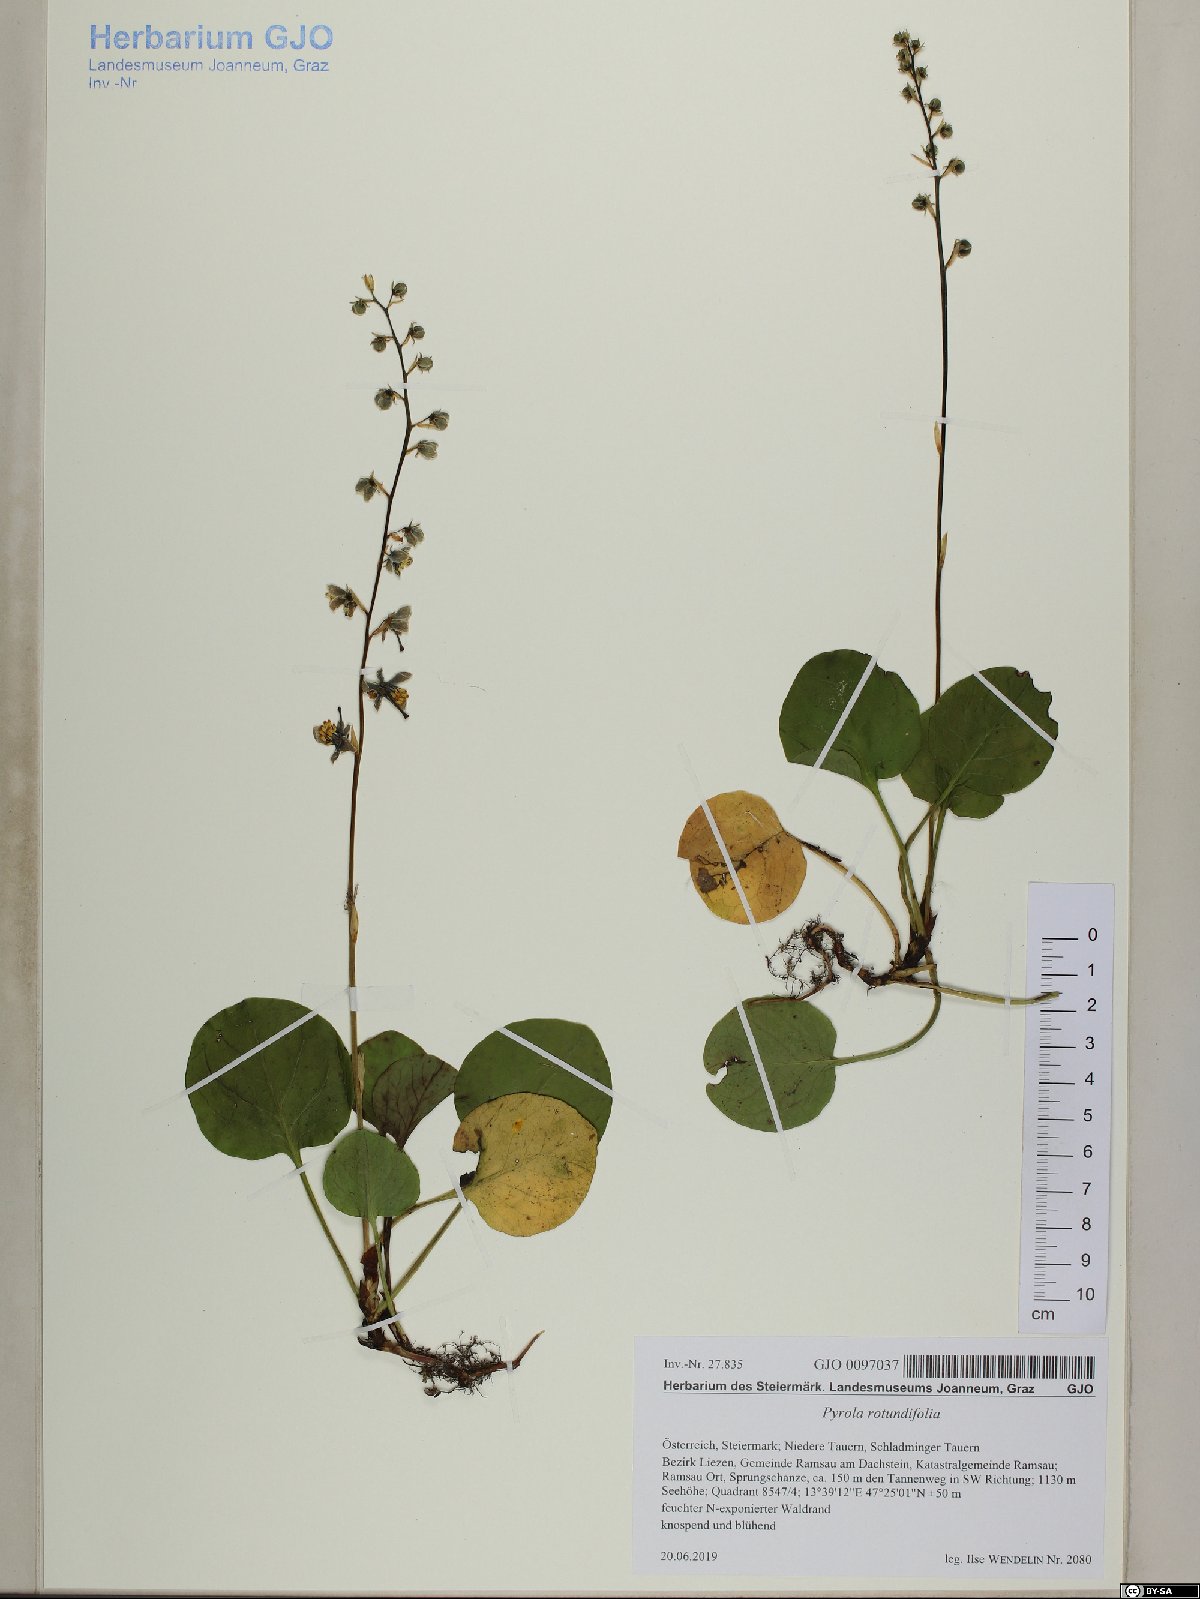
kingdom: Plantae
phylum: Tracheophyta
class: Magnoliopsida
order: Ericales
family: Ericaceae
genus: Pyrola
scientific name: Pyrola rotundifolia
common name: Round-leaved wintergreen
